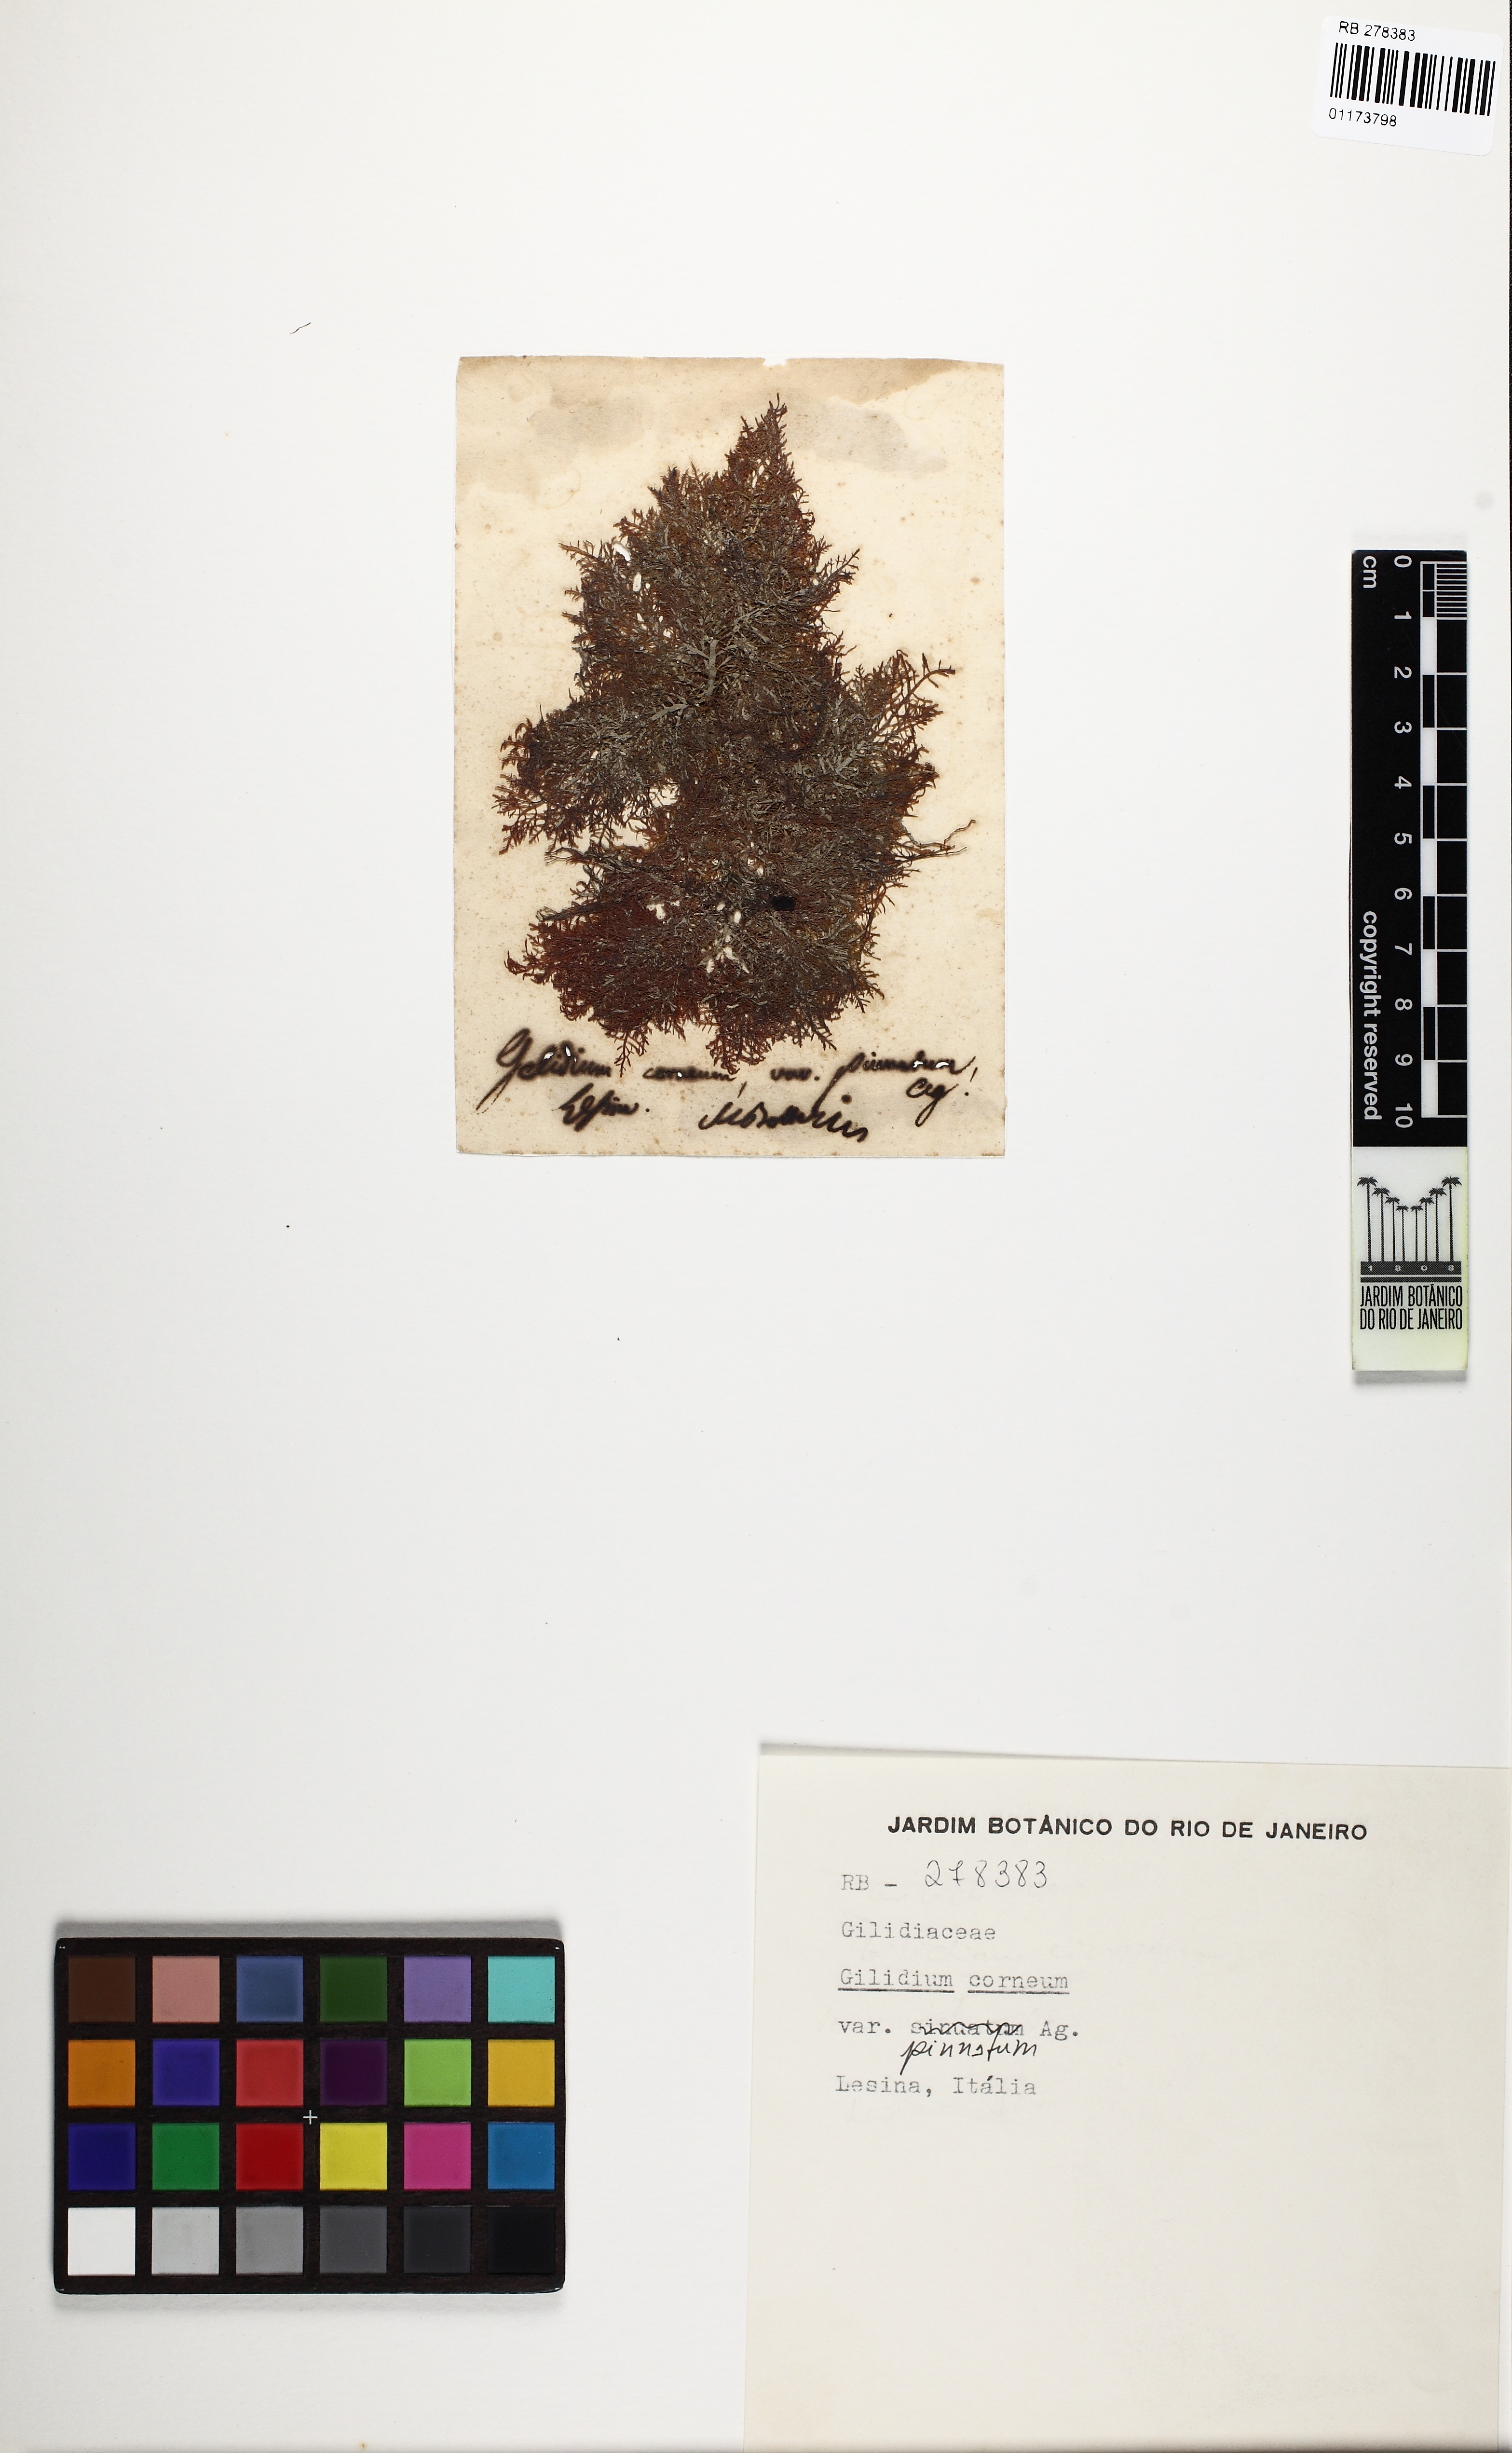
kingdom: Plantae
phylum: Rhodophyta
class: Florideophyceae
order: Gelidiales
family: Gelidiaceae
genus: Gelidium
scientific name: Gelidium spinosum
